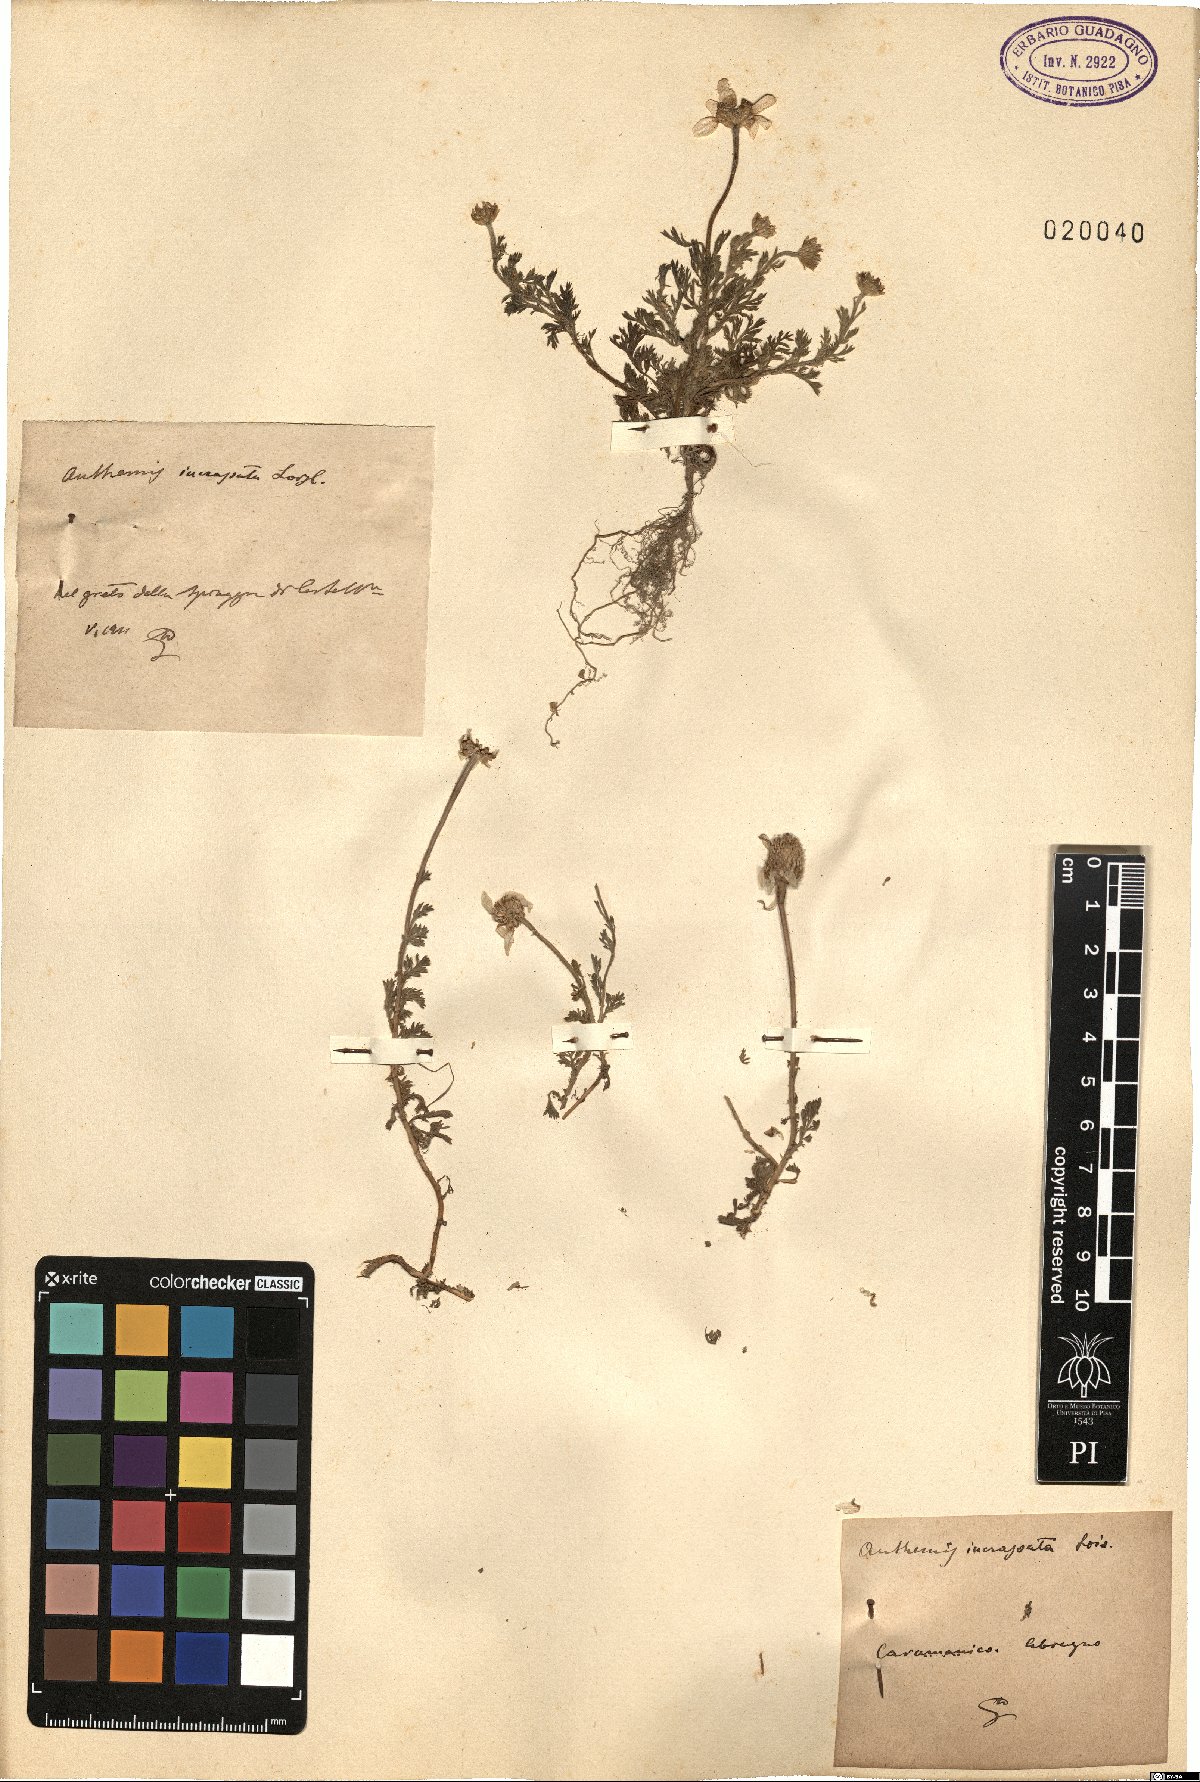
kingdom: Plantae
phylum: Tracheophyta
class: Magnoliopsida
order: Asterales
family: Asteraceae
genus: Anthemis
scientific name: Anthemis arvensis
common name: Corn chamomile
